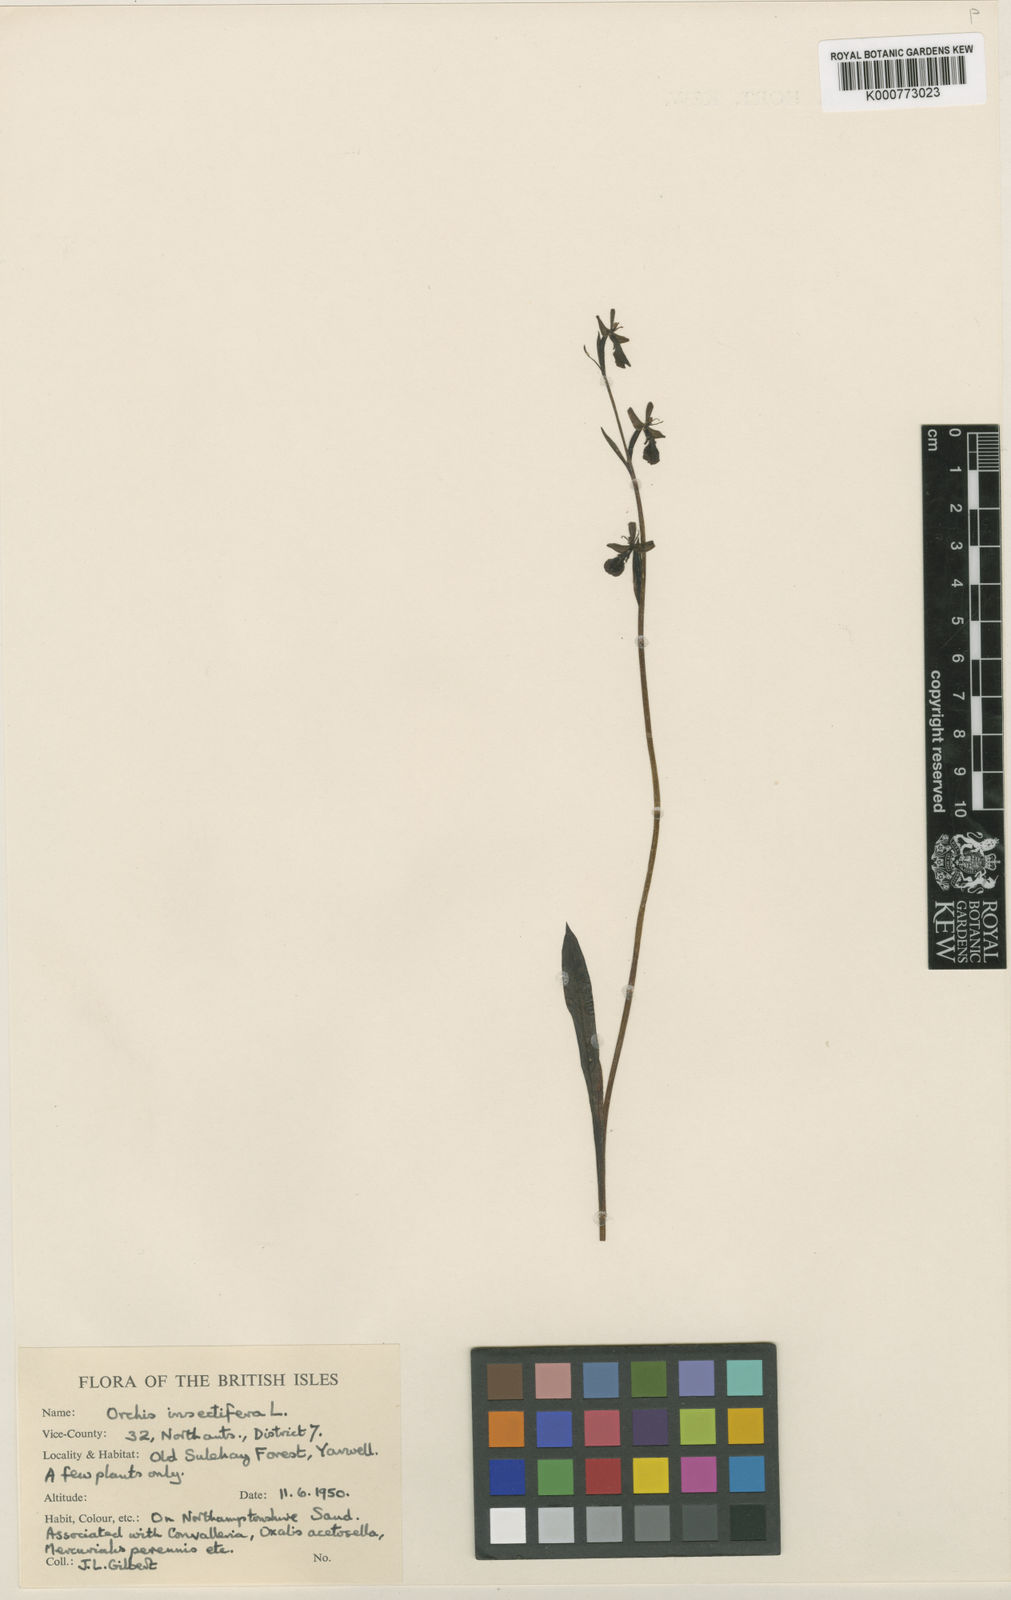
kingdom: Plantae
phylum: Tracheophyta
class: Liliopsida
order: Asparagales
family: Orchidaceae
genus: Ophrys
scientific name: Ophrys insectifera
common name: Fly orchid
